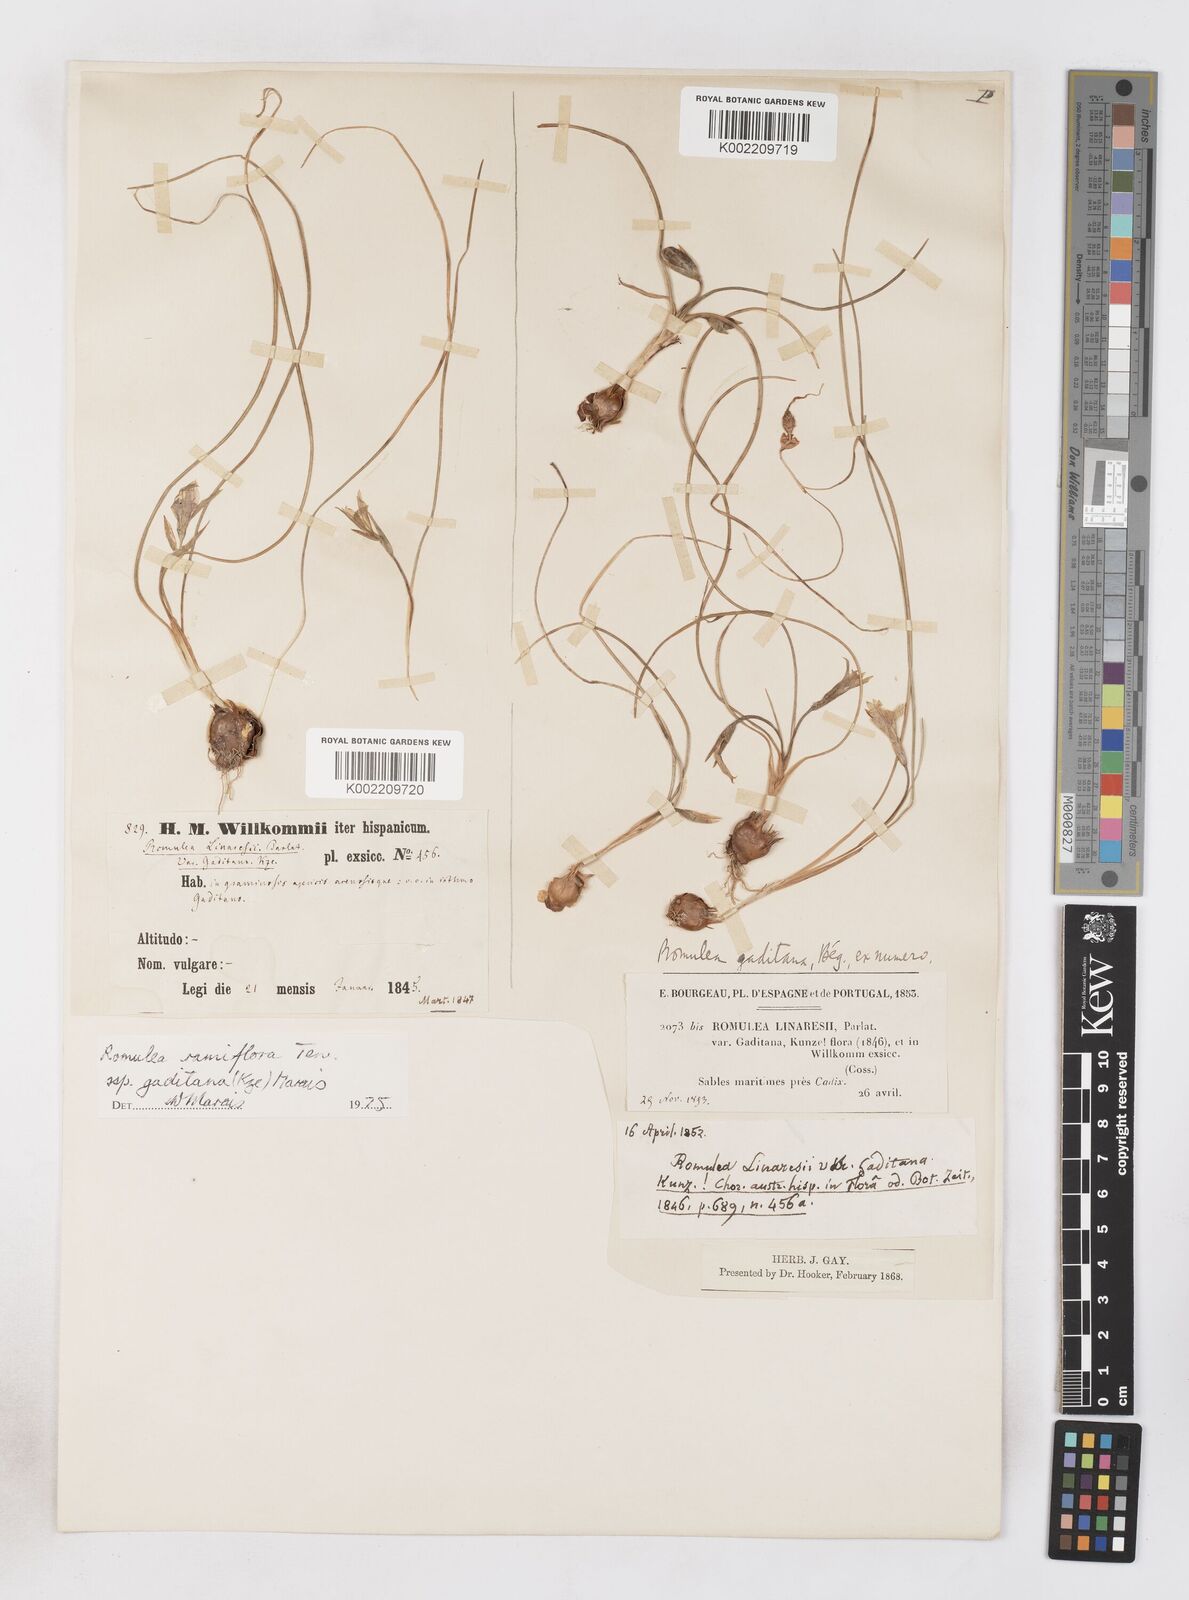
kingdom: Plantae
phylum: Tracheophyta
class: Liliopsida
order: Asparagales
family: Iridaceae
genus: Romulea
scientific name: Romulea ramiflora
